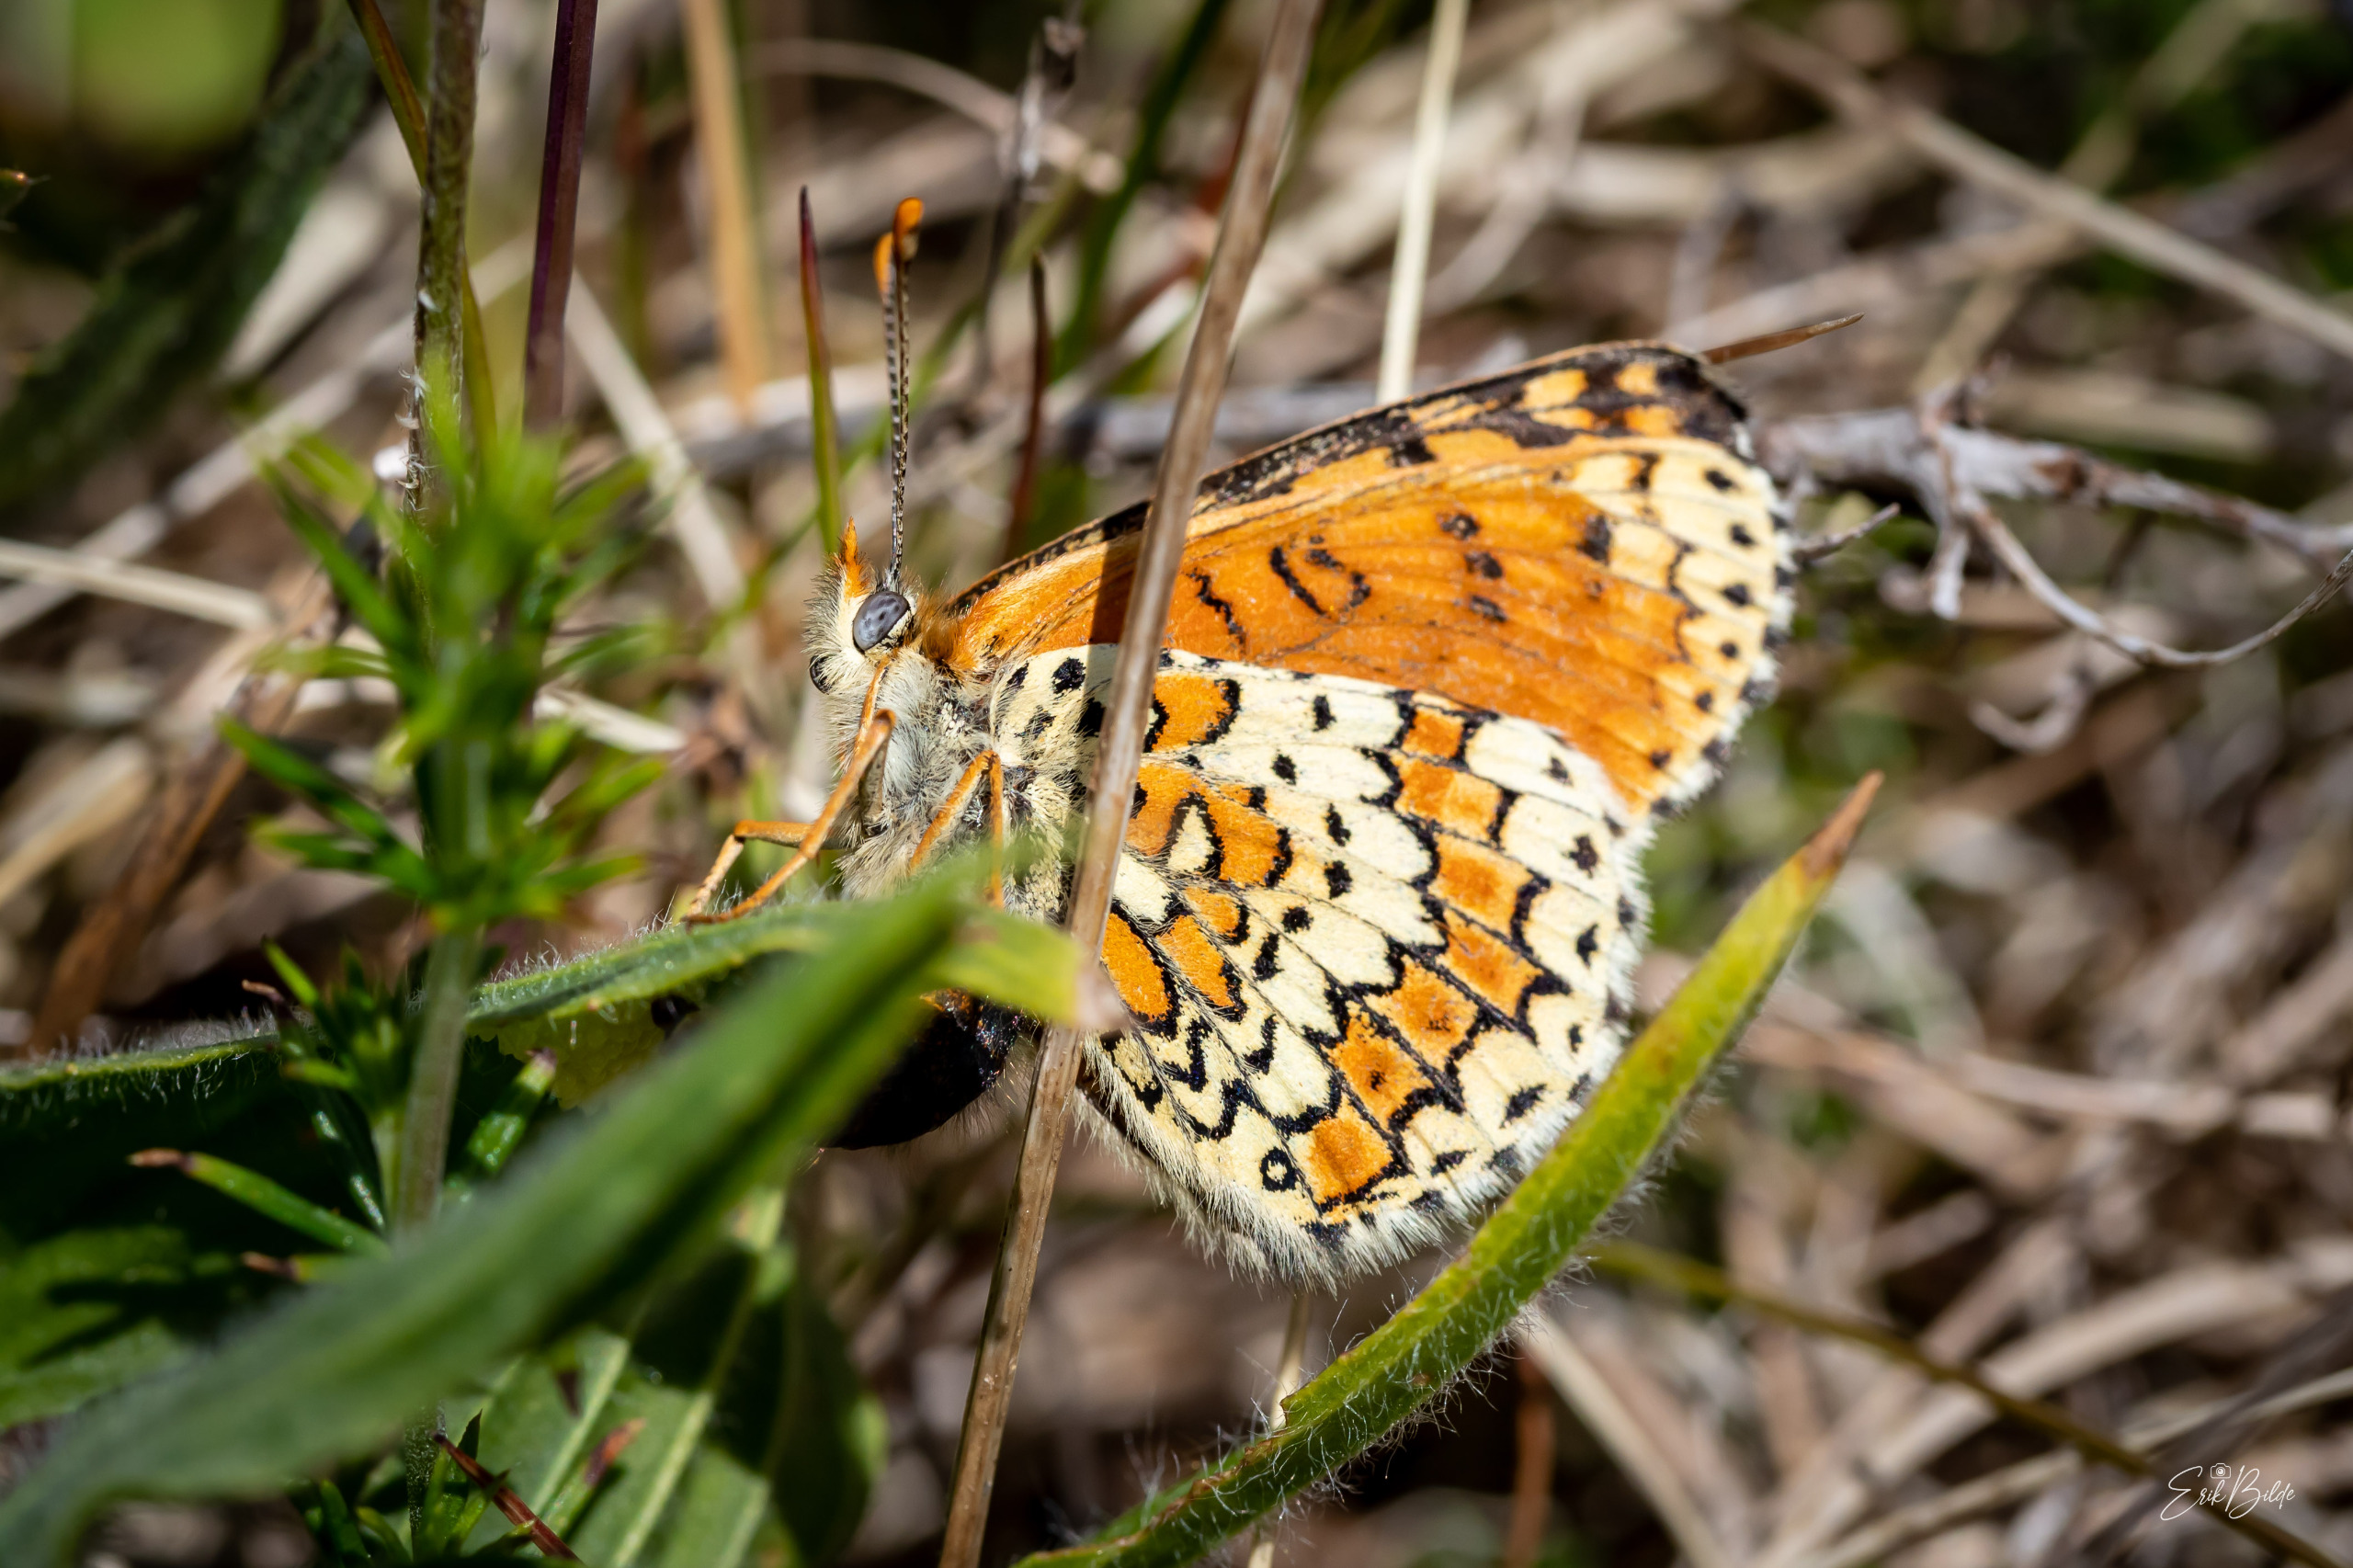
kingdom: Animalia
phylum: Arthropoda
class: Insecta
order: Lepidoptera
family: Nymphalidae
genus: Melitaea
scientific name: Melitaea cinxia
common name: Okkergul pletvinge
